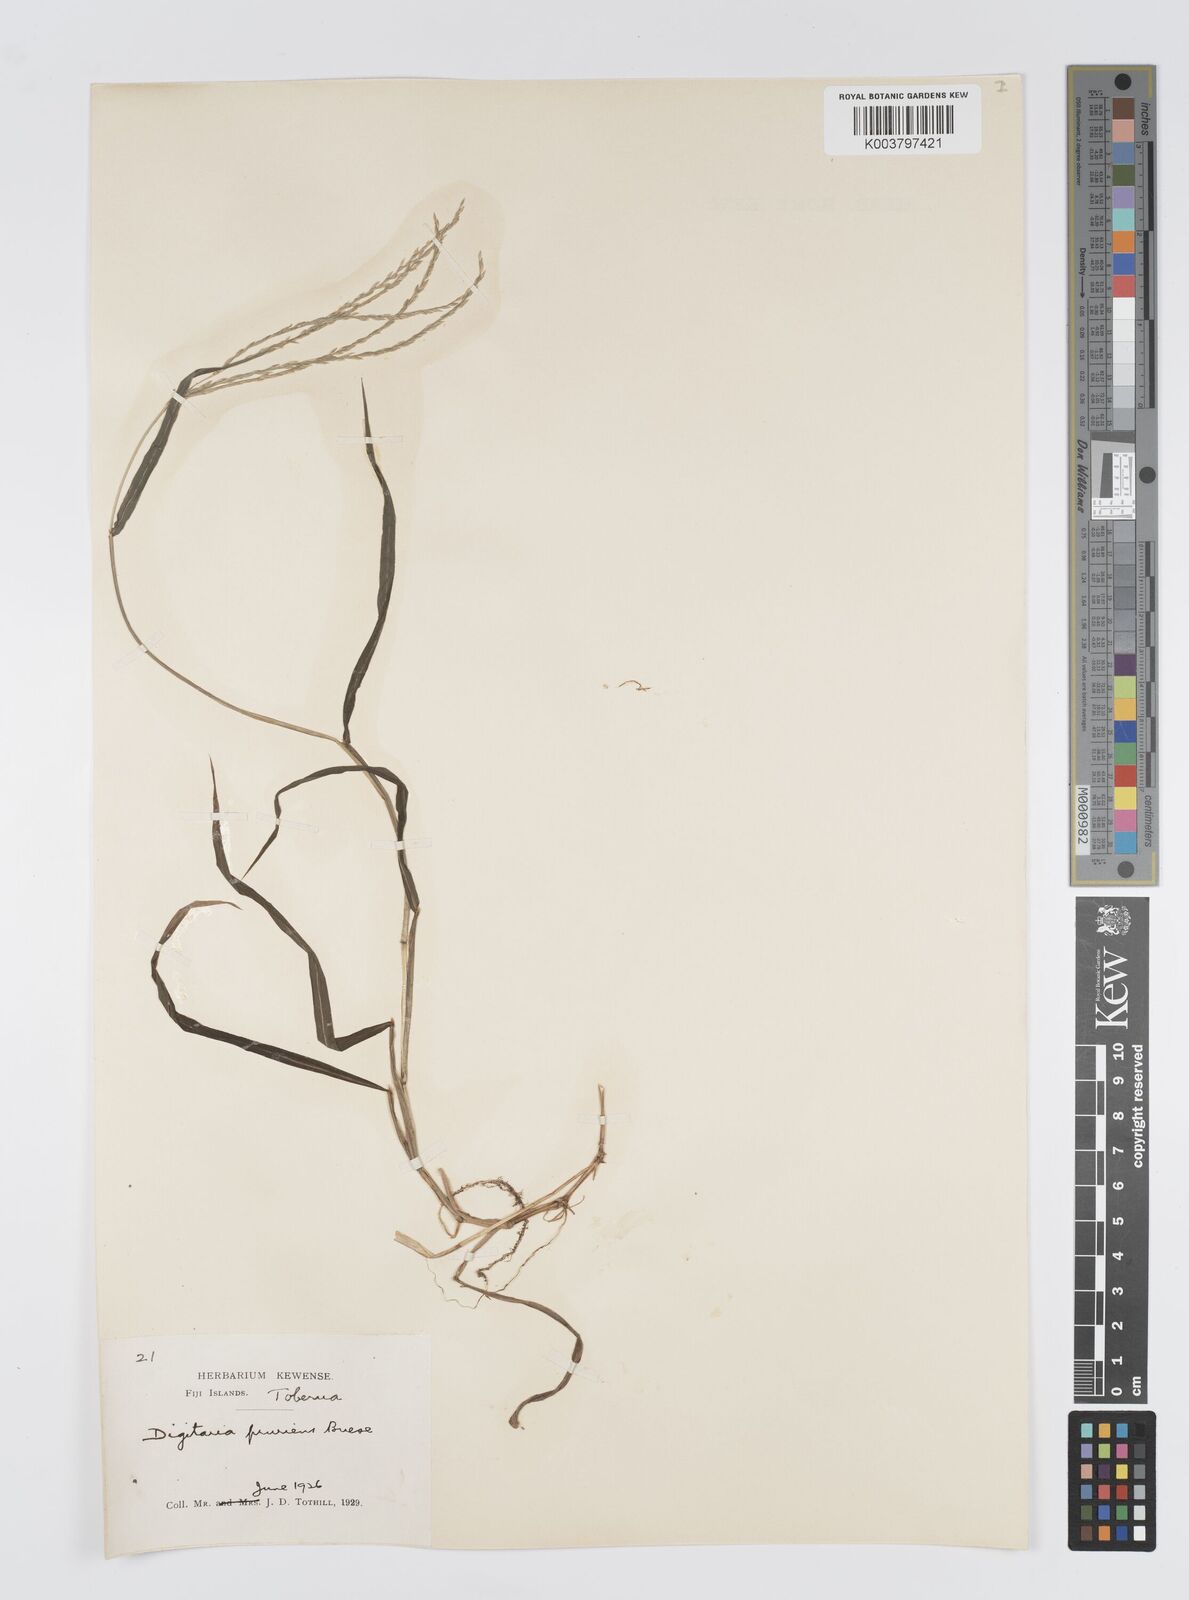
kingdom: Plantae
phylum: Tracheophyta
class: Liliopsida
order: Poales
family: Poaceae
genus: Digitaria
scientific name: Digitaria setigera
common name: East indian crabgrass
